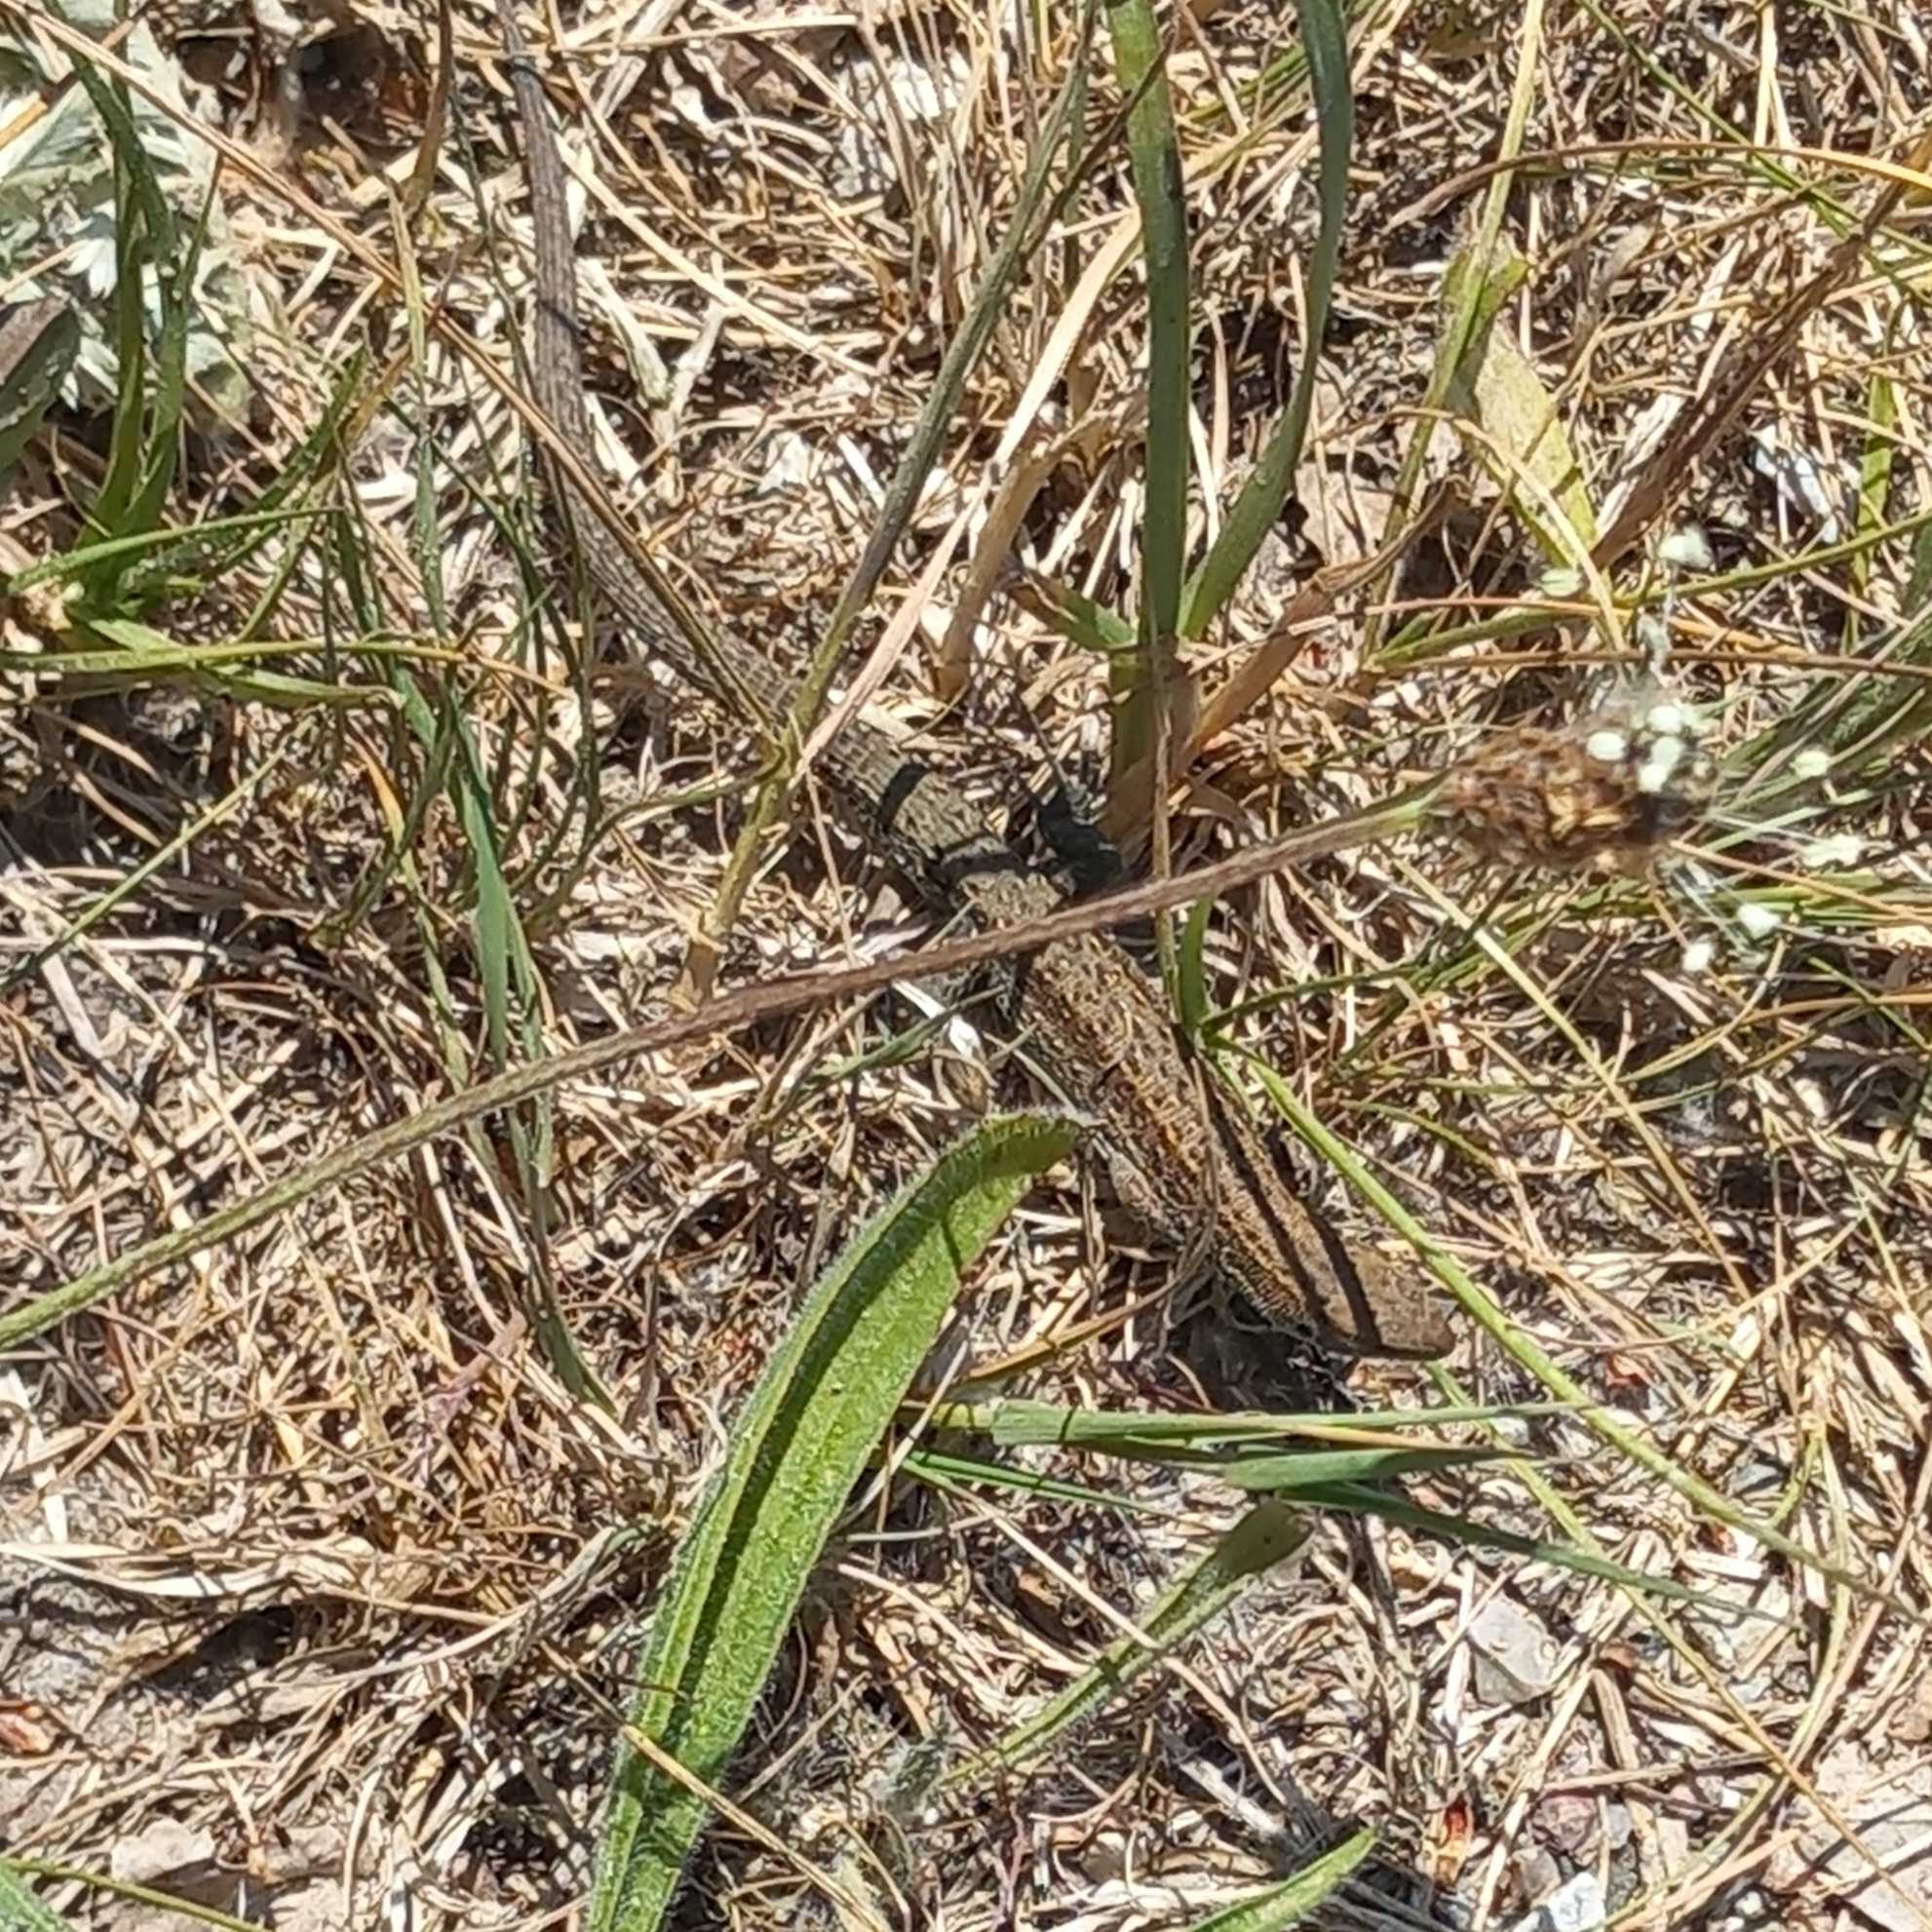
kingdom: Animalia
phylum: Chordata
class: Squamata
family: Lacertidae
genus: Zootoca
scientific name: Zootoca vivipara
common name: Skovfirben
